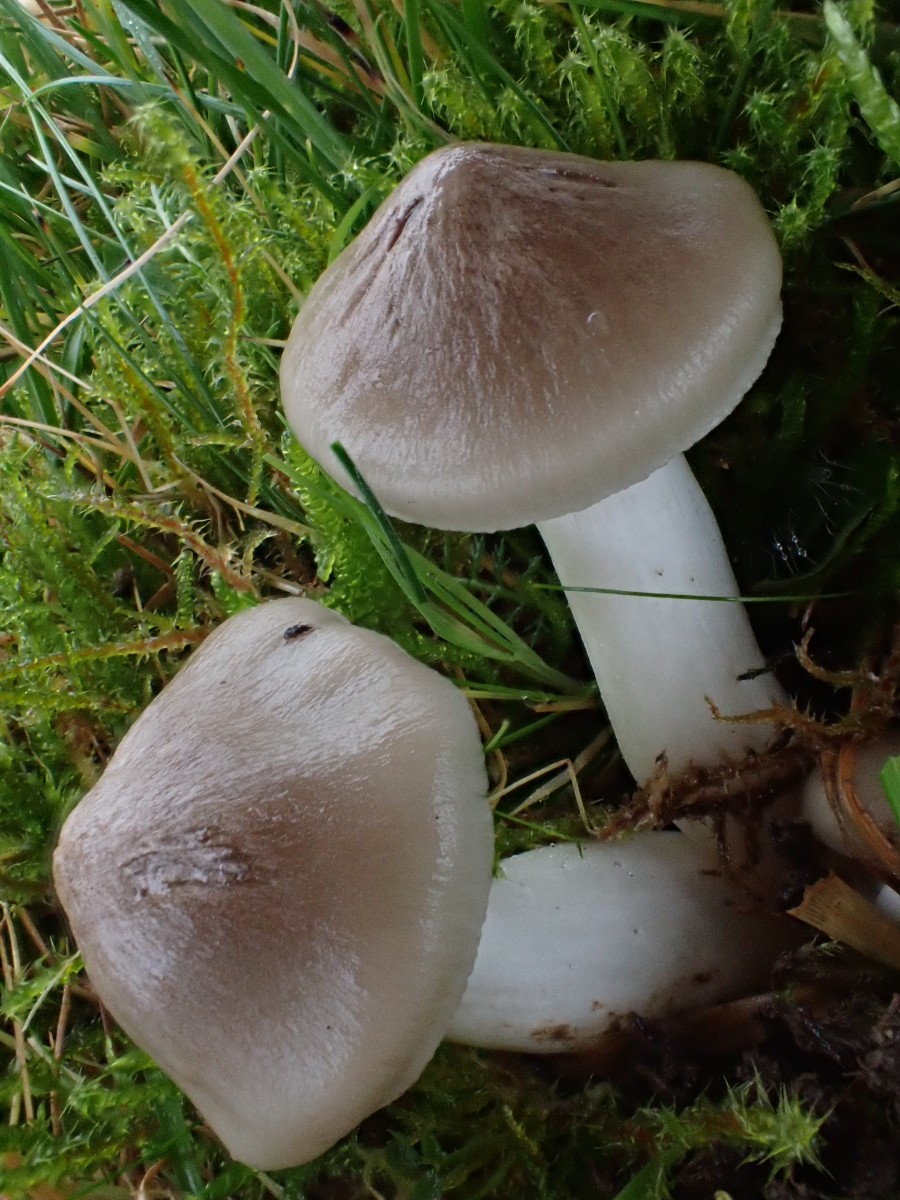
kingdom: Fungi
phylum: Basidiomycota
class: Agaricomycetes
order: Agaricales
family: Entolomataceae
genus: Entoloma
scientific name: Entoloma prunuloides
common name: mel-rødblad
